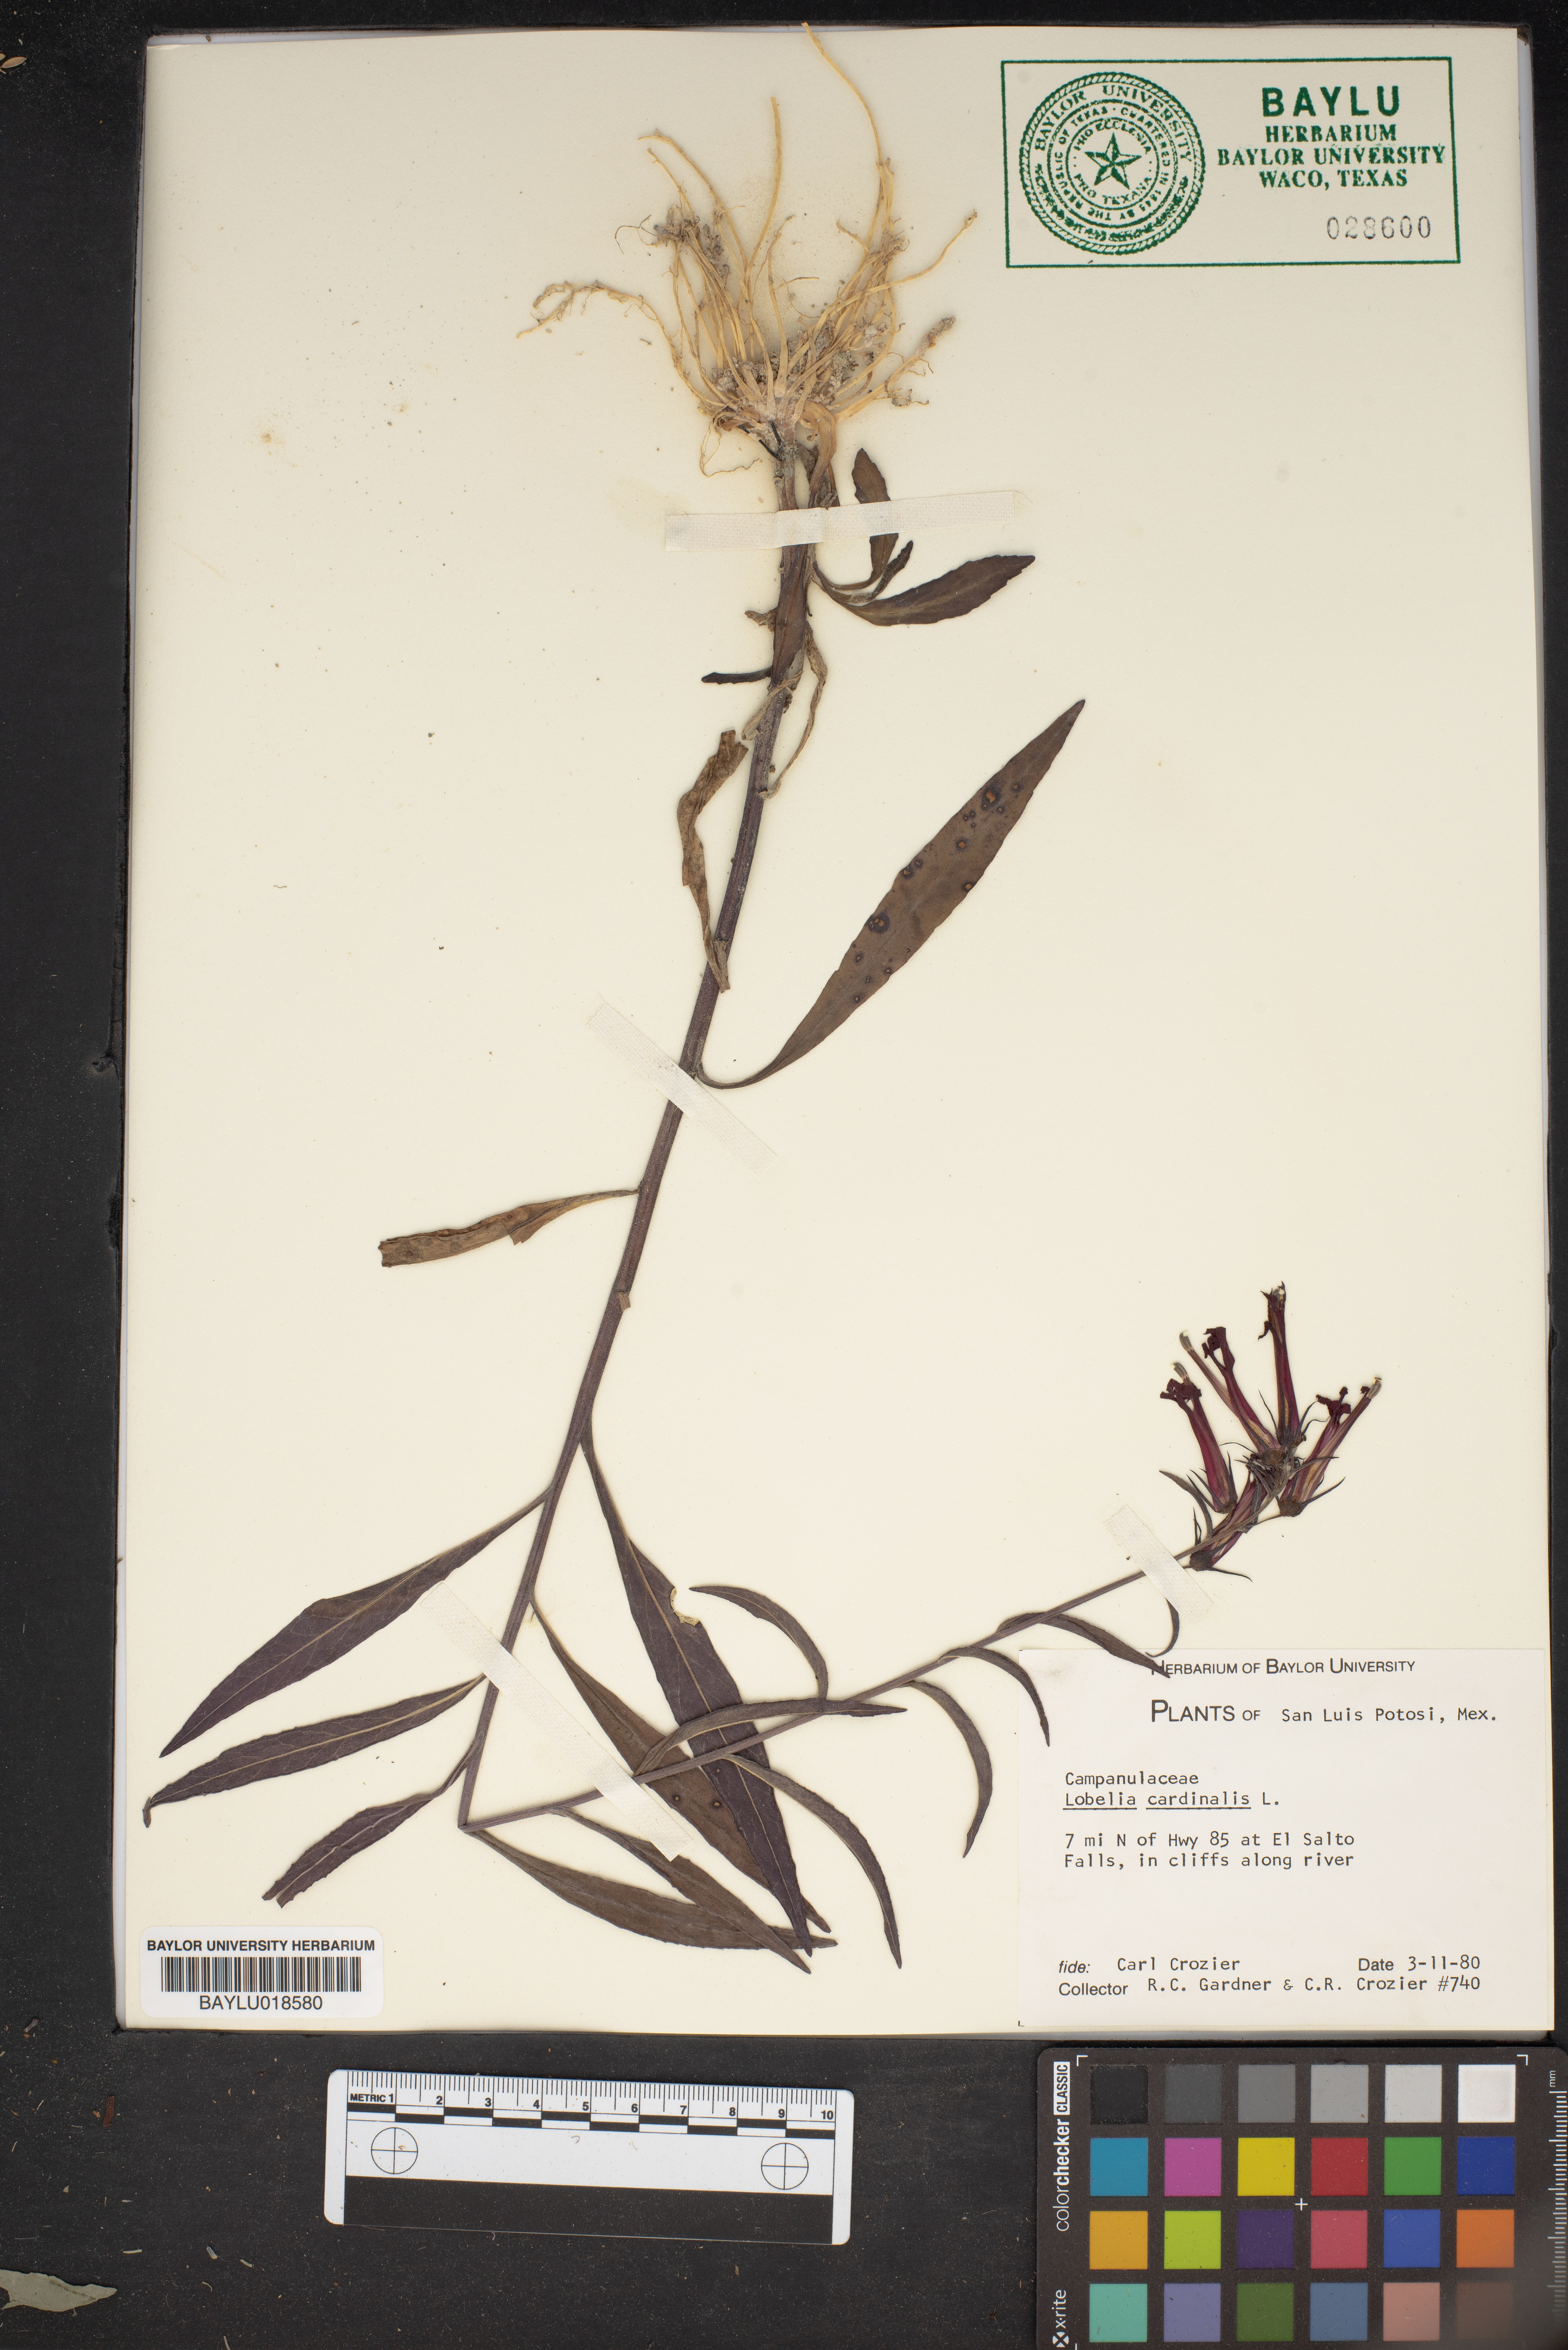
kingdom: Plantae
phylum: Tracheophyta
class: Magnoliopsida
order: Asterales
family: Campanulaceae
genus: Lobelia
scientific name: Lobelia cardinalis
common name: Cardinal flower
